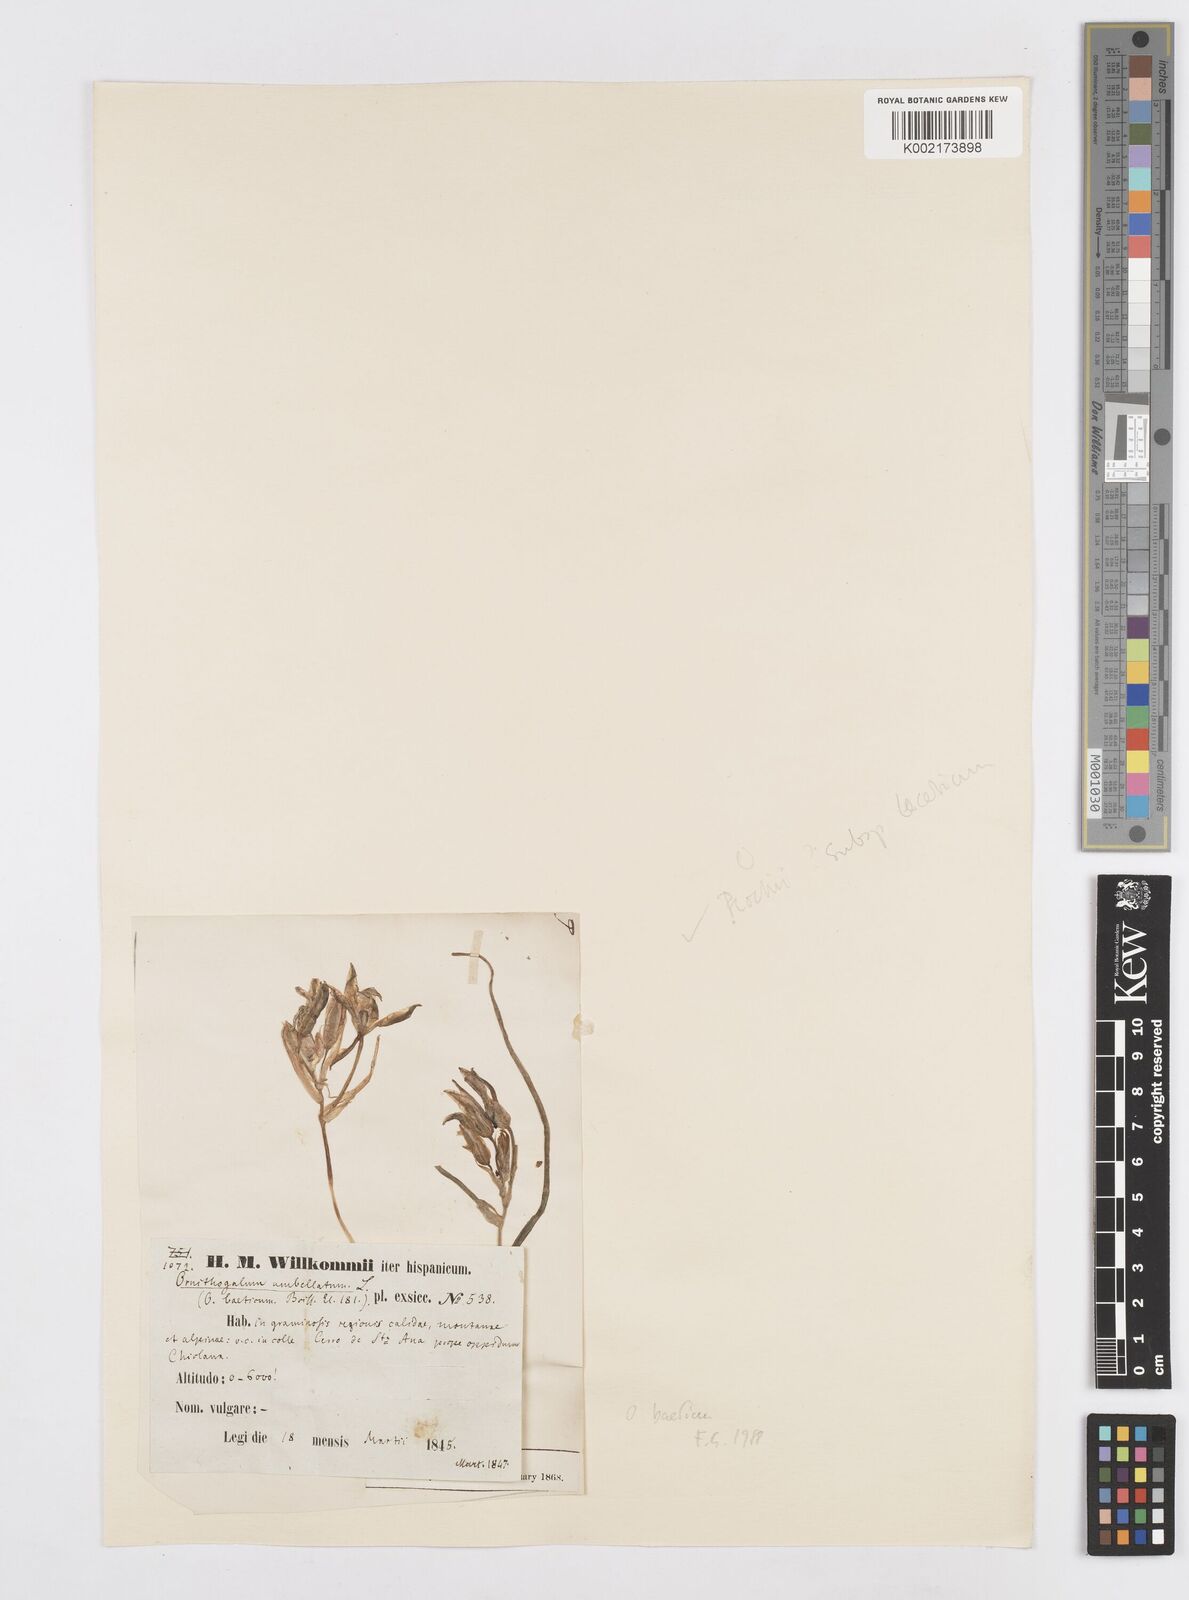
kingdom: Plantae
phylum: Tracheophyta
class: Liliopsida
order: Asparagales
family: Asparagaceae
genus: Ornithogalum
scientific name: Ornithogalum orthophyllum
